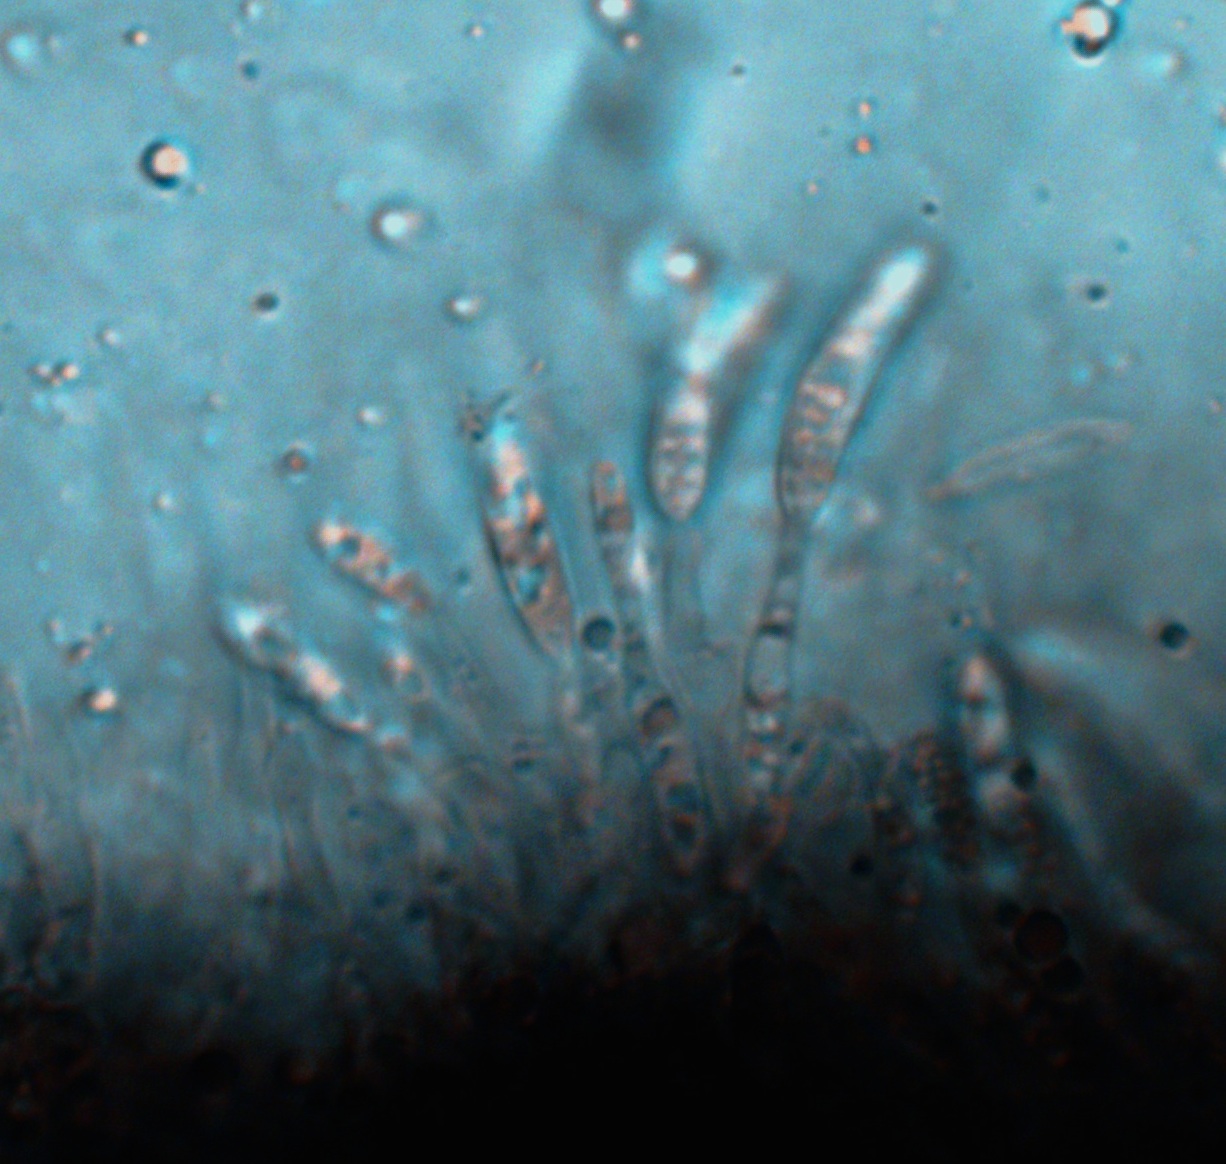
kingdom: Fungi
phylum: Ascomycota
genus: Discosporina
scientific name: Discosporina deplanata
